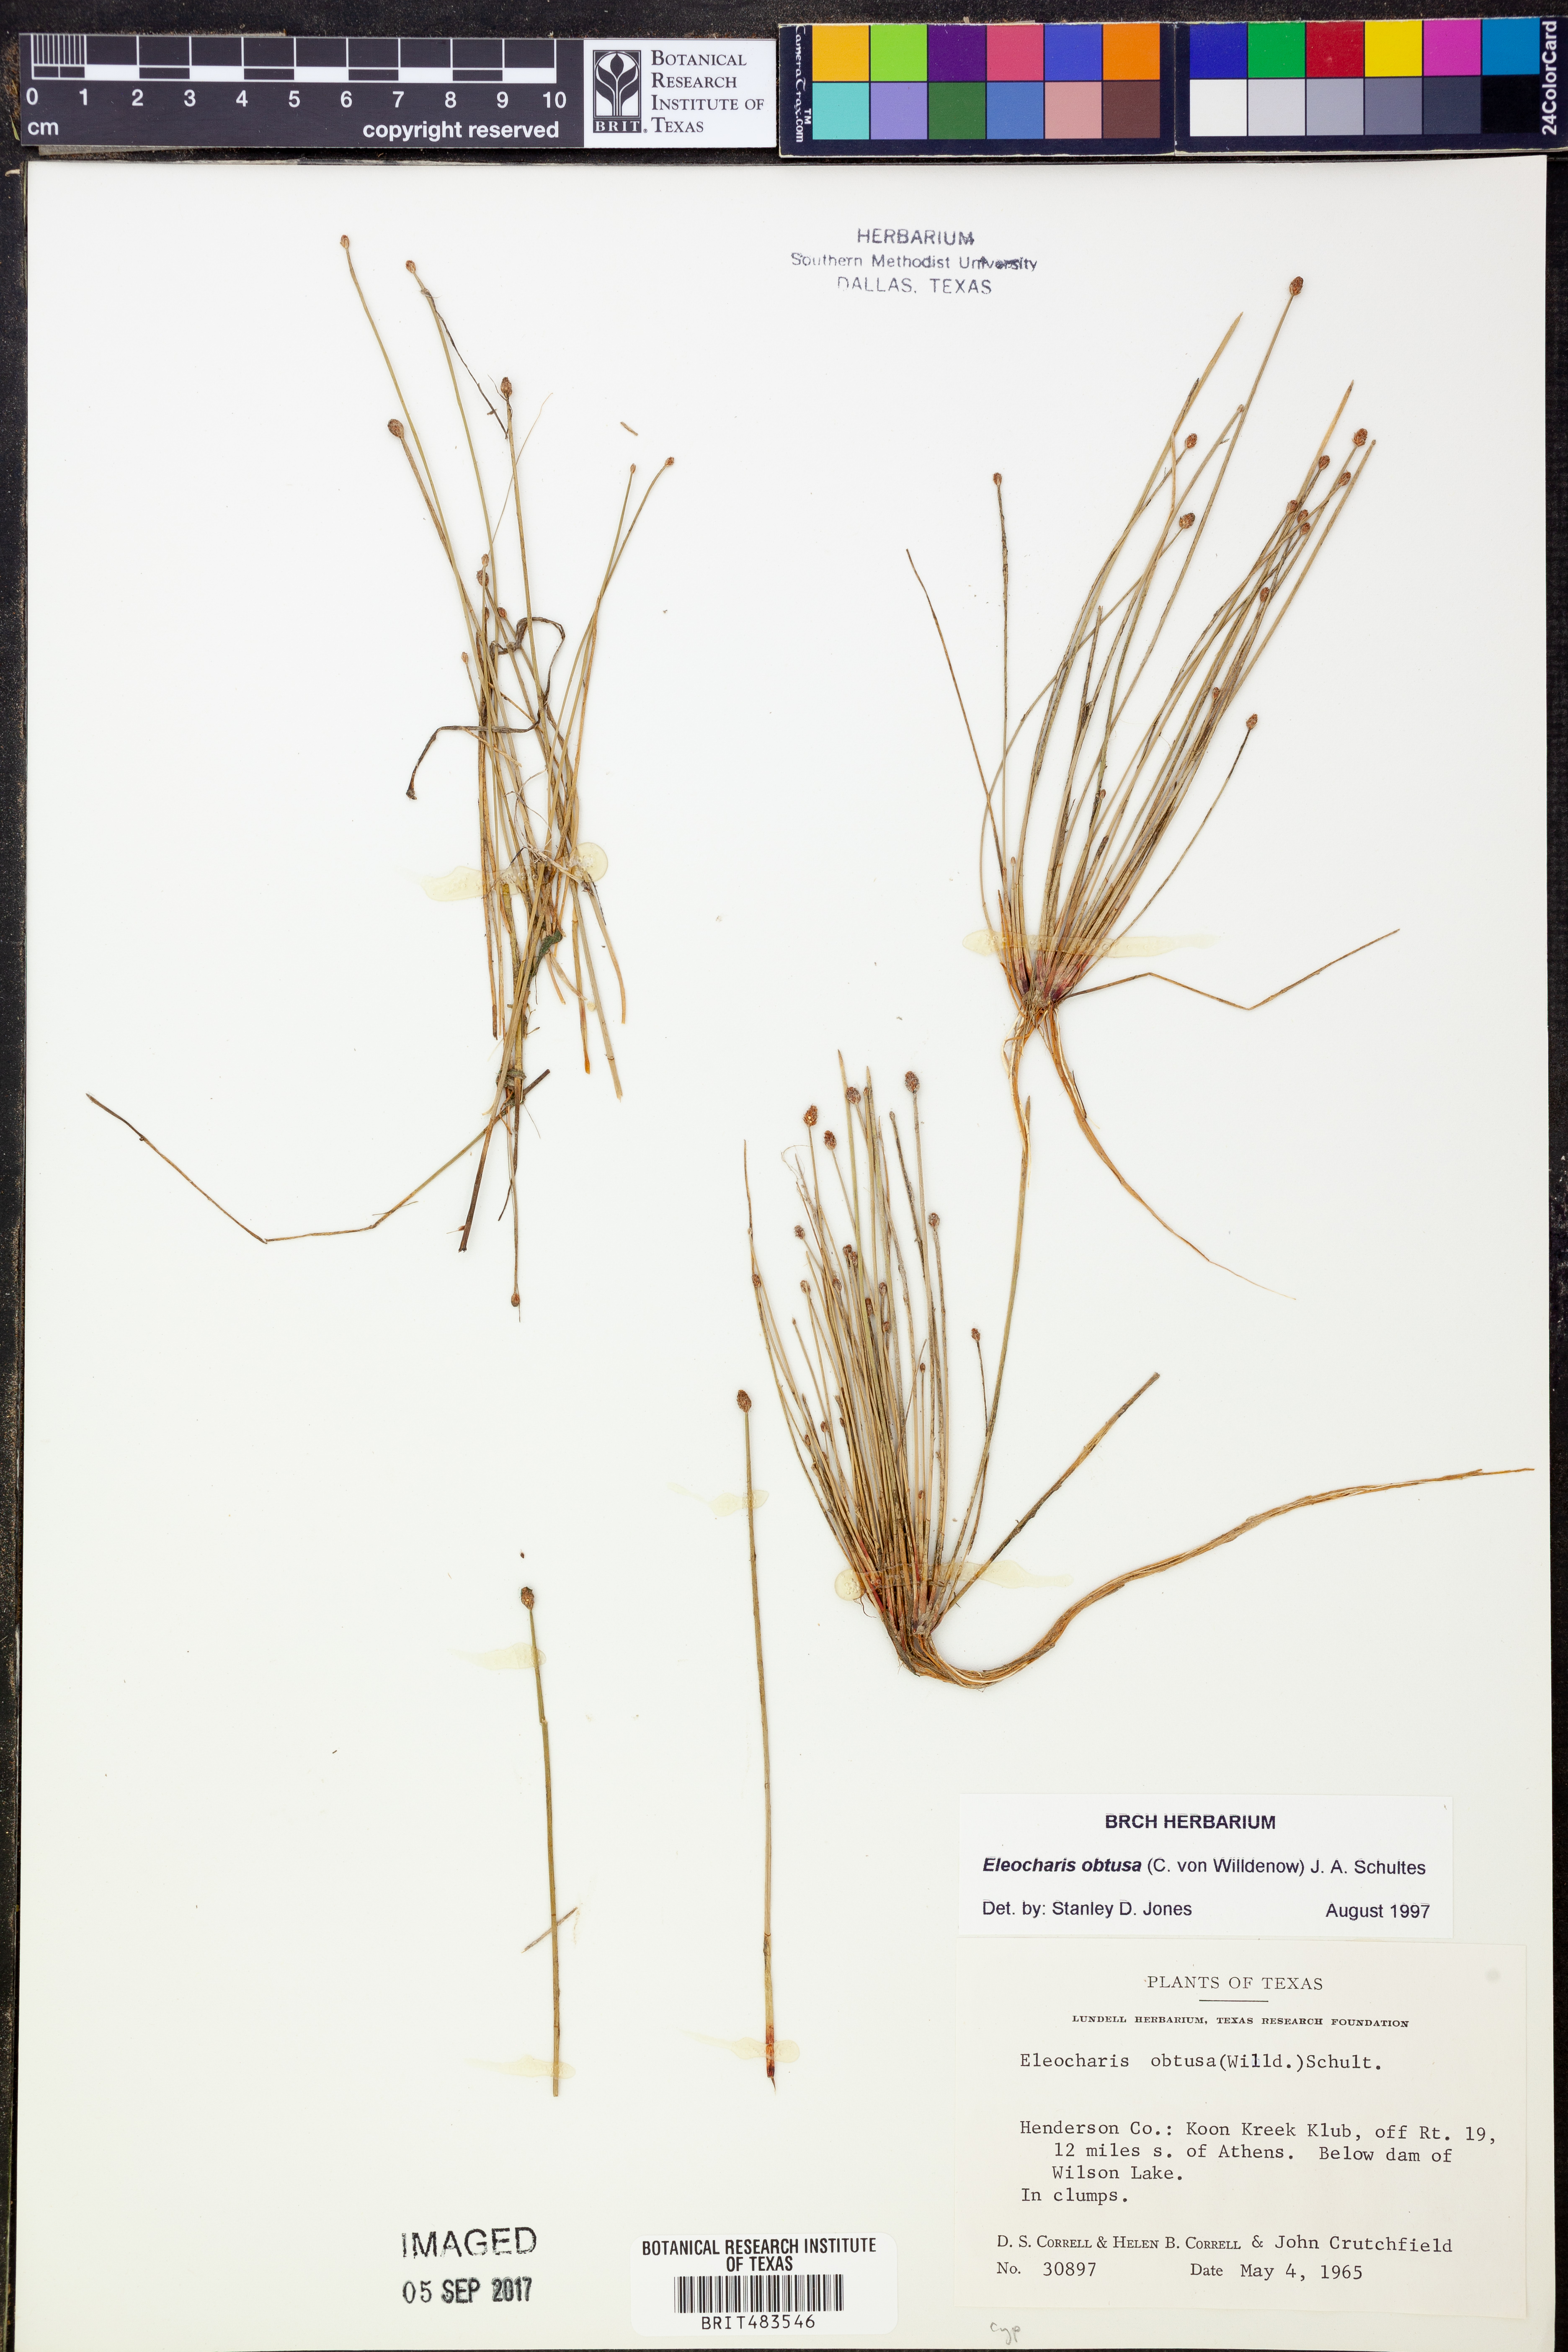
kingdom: Plantae
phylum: Tracheophyta
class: Liliopsida
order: Poales
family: Cyperaceae
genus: Eleocharis
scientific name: Eleocharis obtusa
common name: Blunt spikerush
